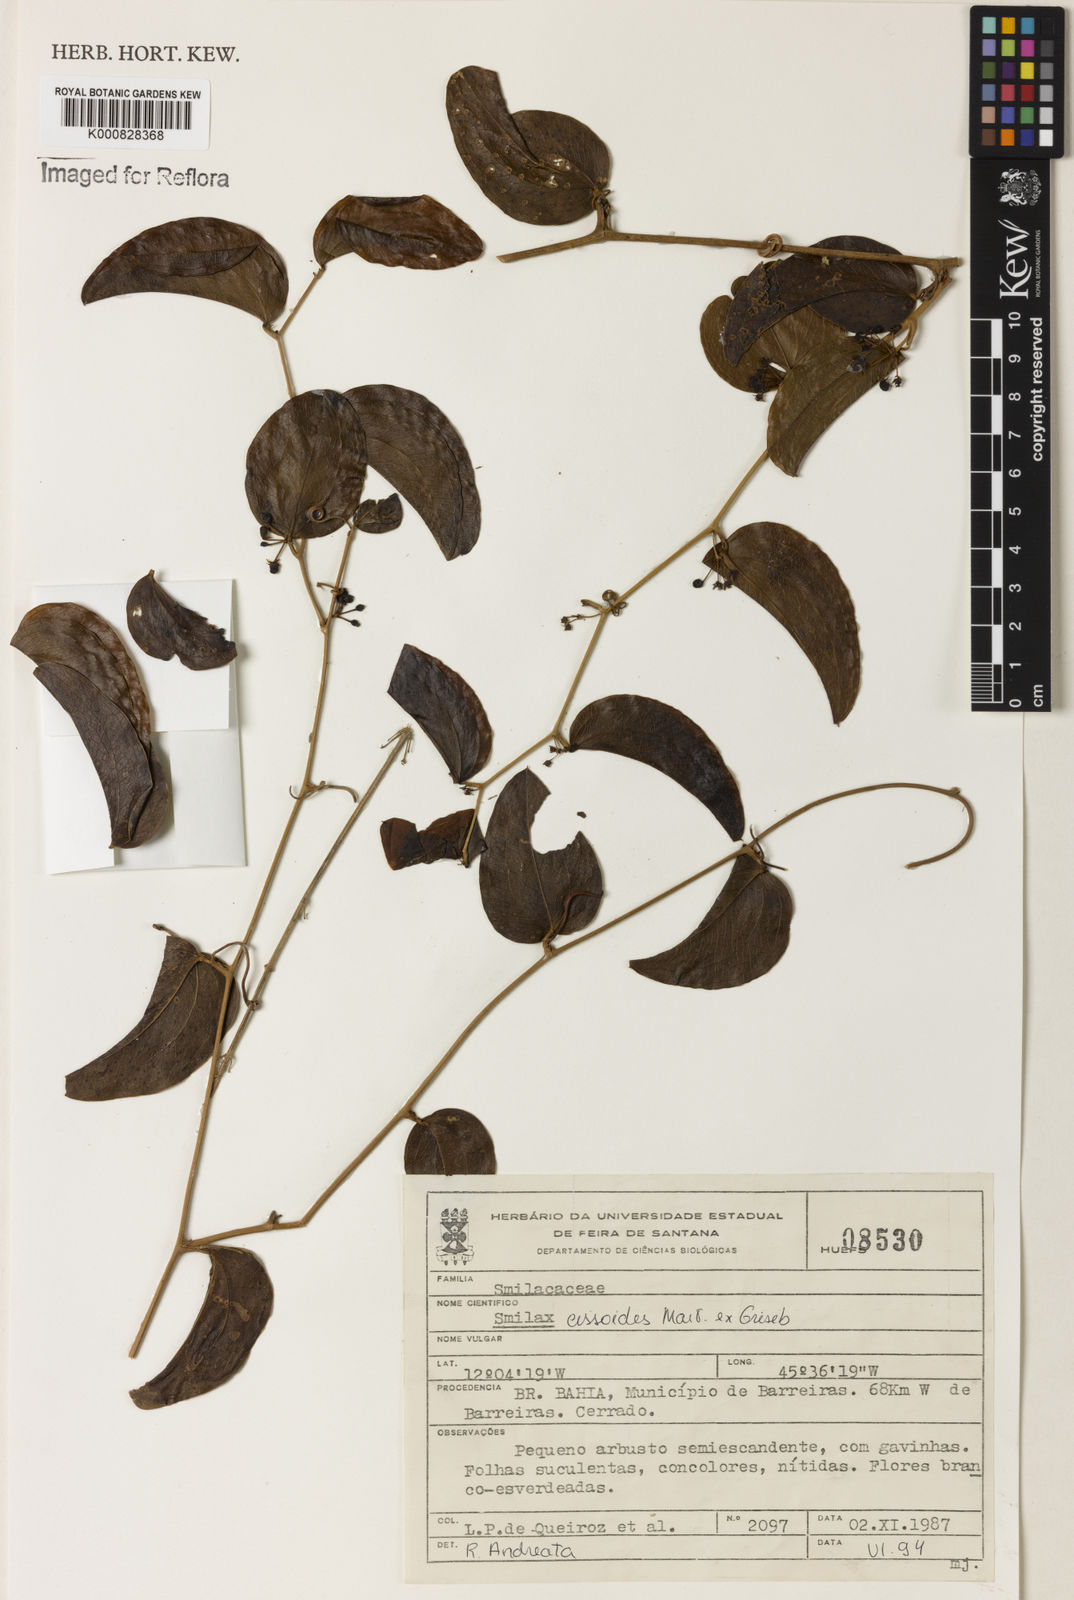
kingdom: Plantae
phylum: Tracheophyta
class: Liliopsida
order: Liliales
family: Smilacaceae
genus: Smilax
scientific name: Smilax
